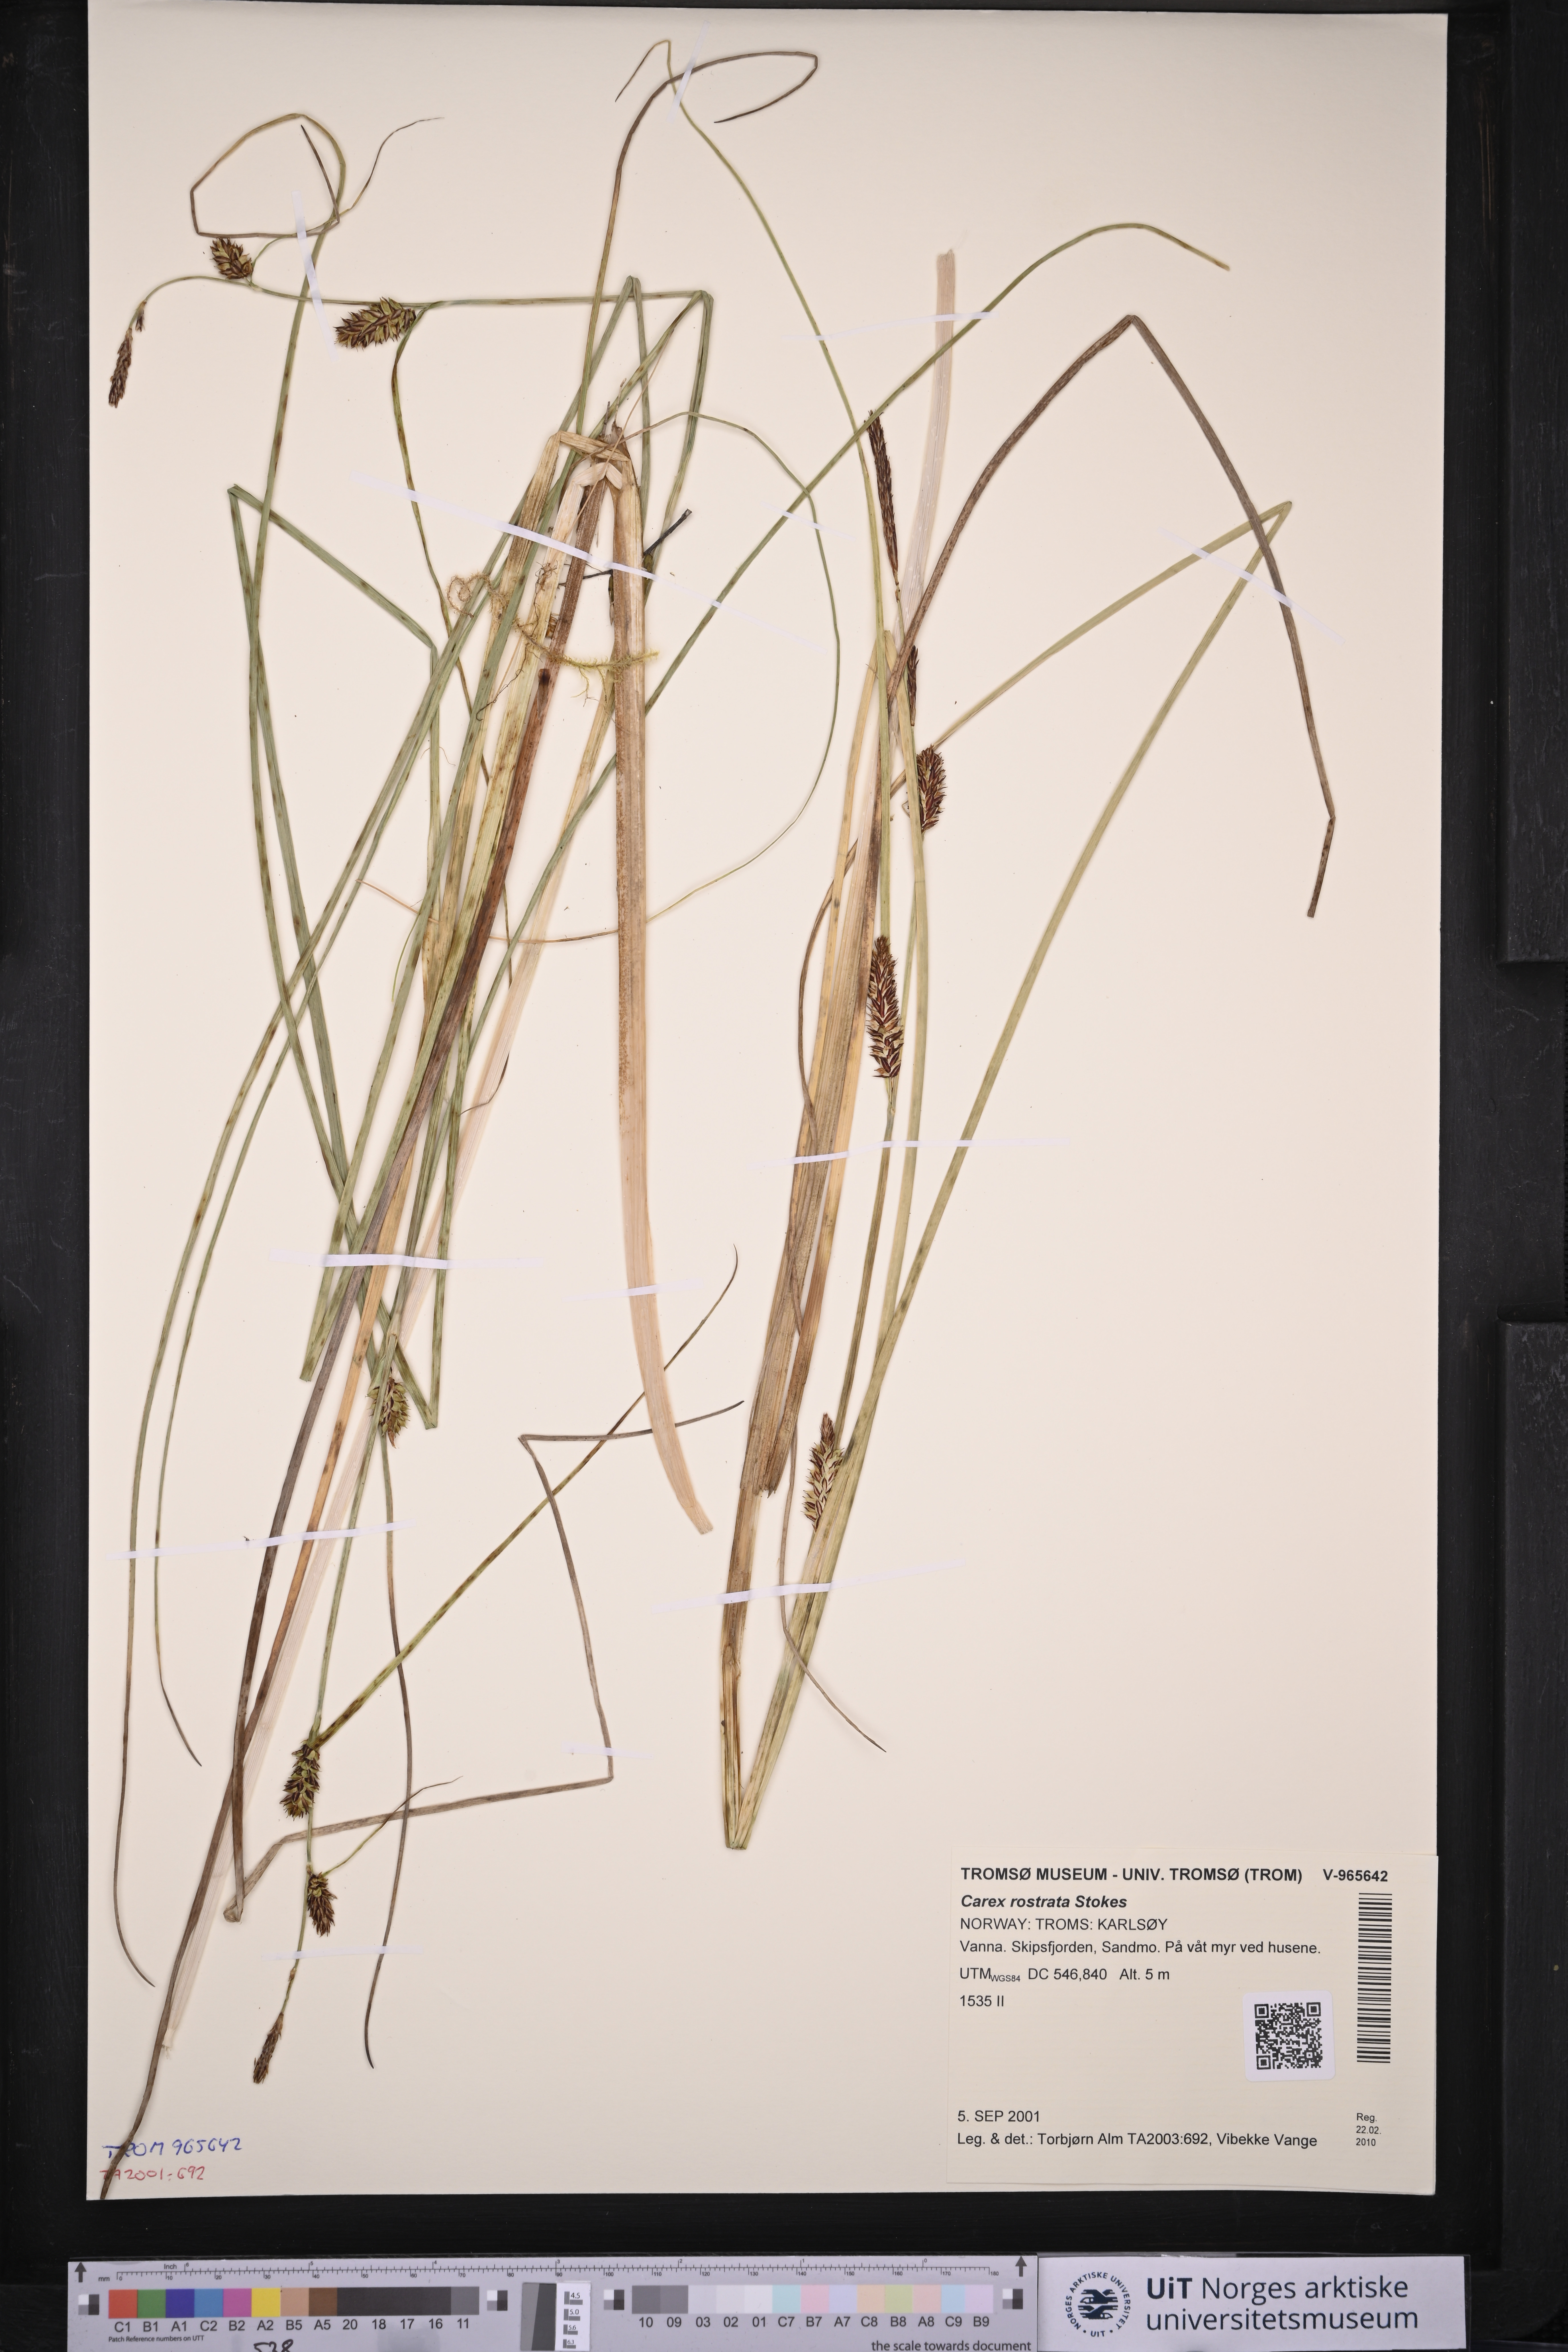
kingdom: Plantae
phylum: Tracheophyta
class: Liliopsida
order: Poales
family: Cyperaceae
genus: Carex
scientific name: Carex rostrata
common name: Bottle sedge
